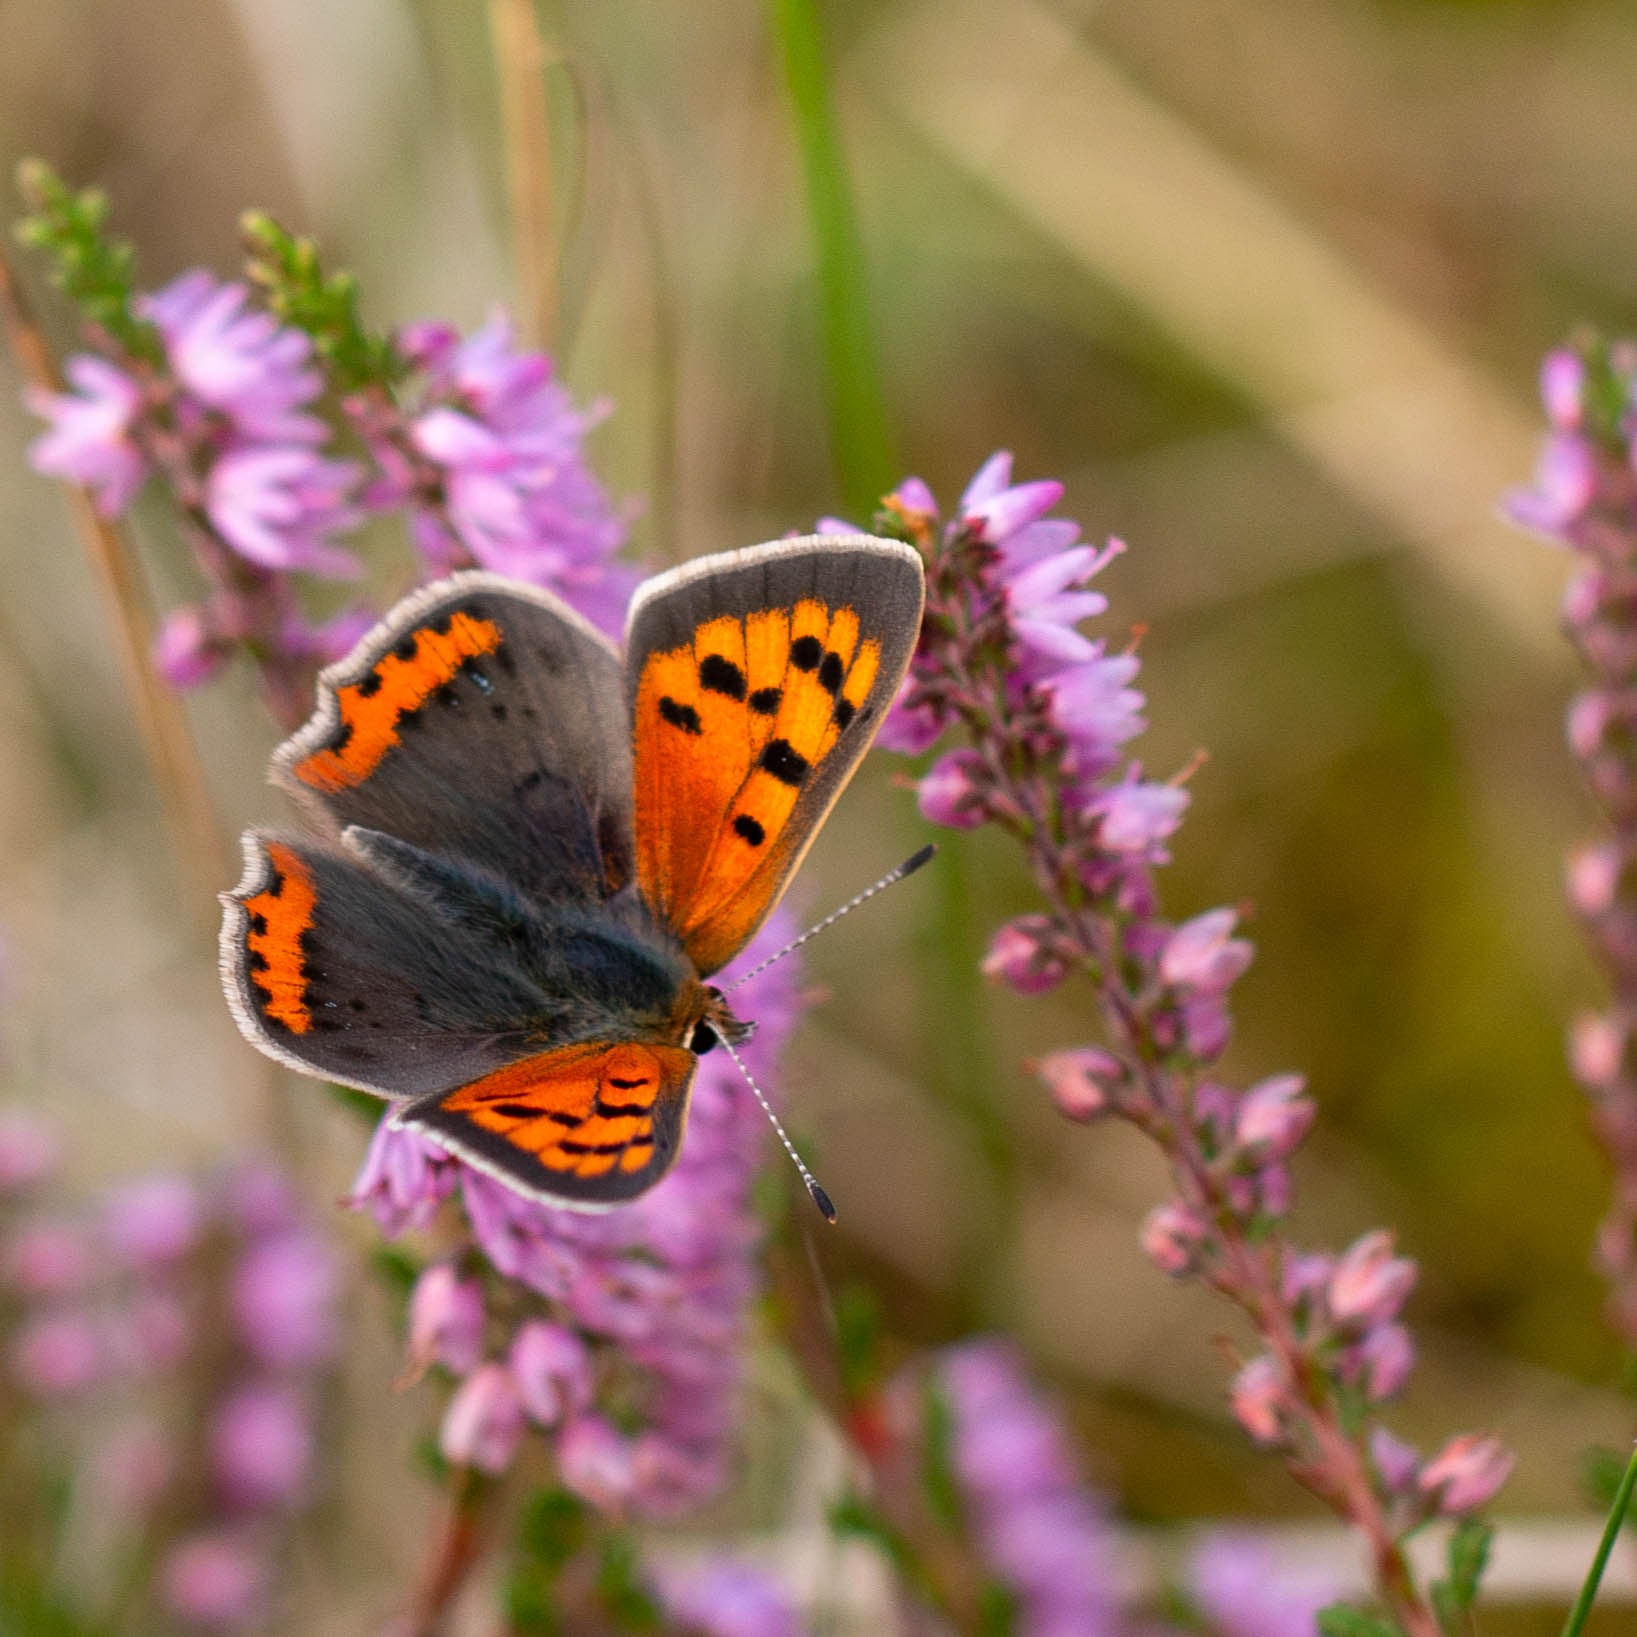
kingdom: Animalia
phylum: Arthropoda
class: Insecta
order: Lepidoptera
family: Lycaenidae
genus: Lycaena
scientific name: Lycaena phlaeas
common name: Lille ildfugl
